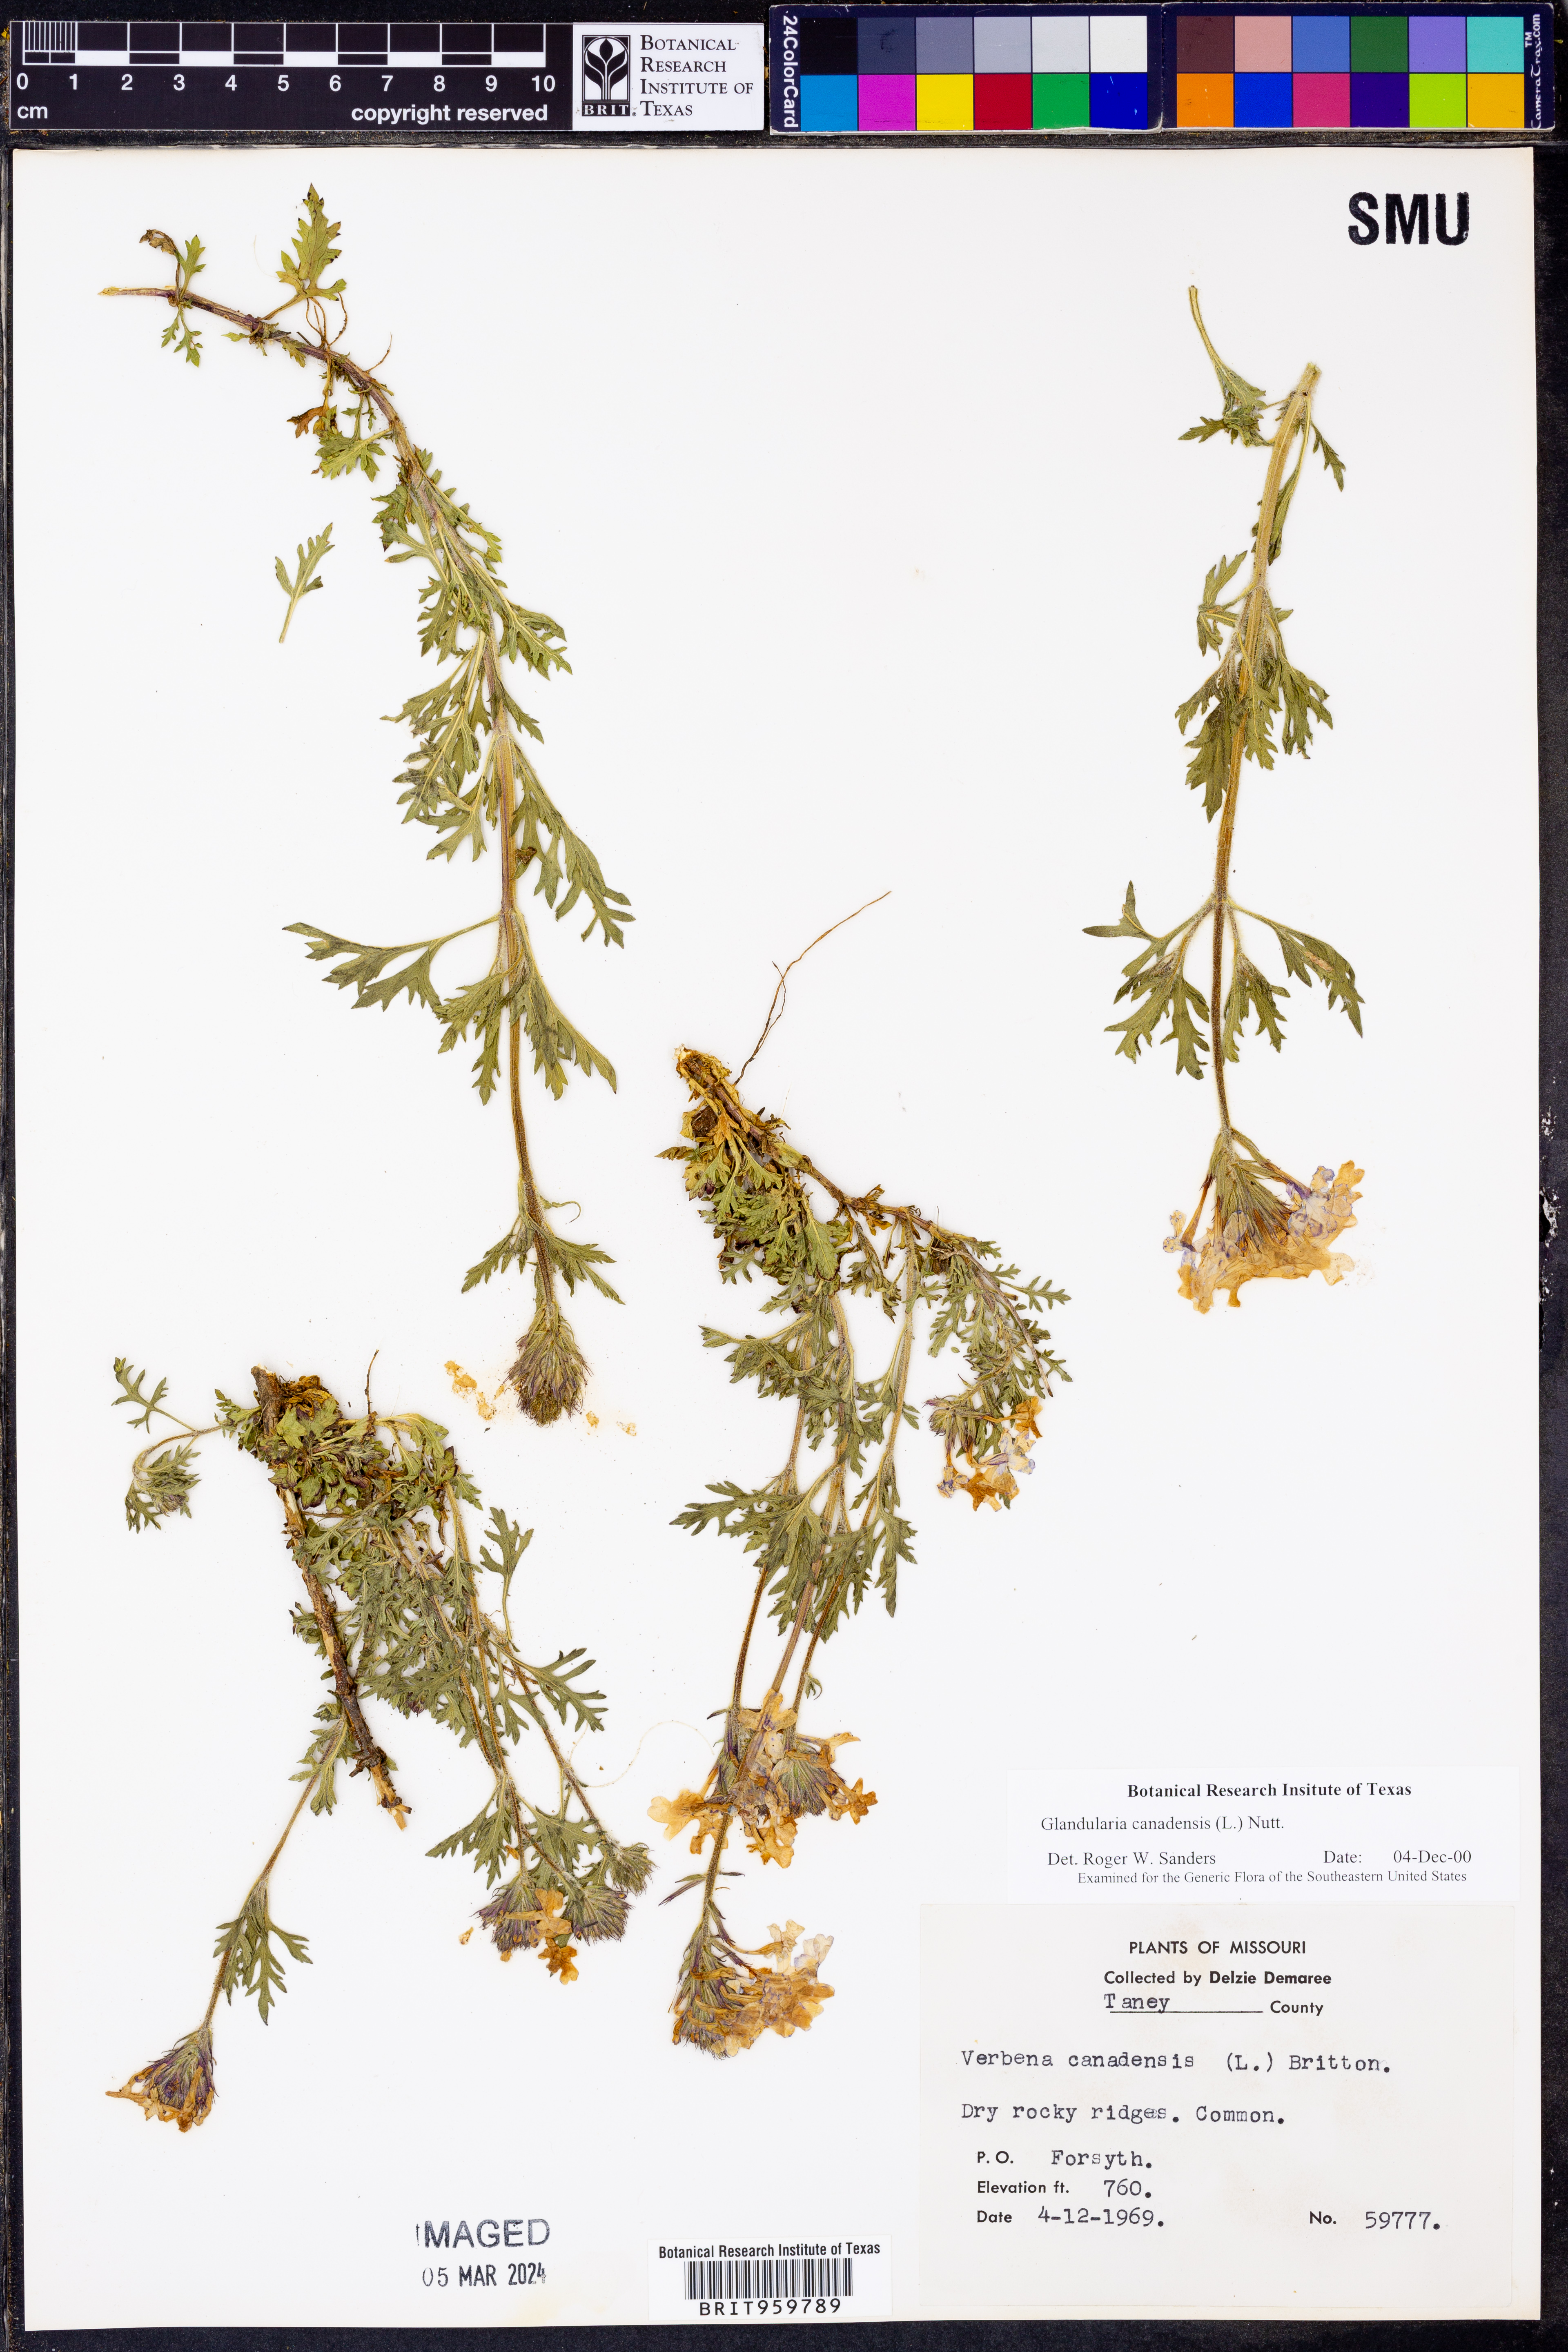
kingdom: Plantae
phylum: Tracheophyta
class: Magnoliopsida
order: Lamiales
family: Verbenaceae
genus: Verbena
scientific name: Verbena canadensis
